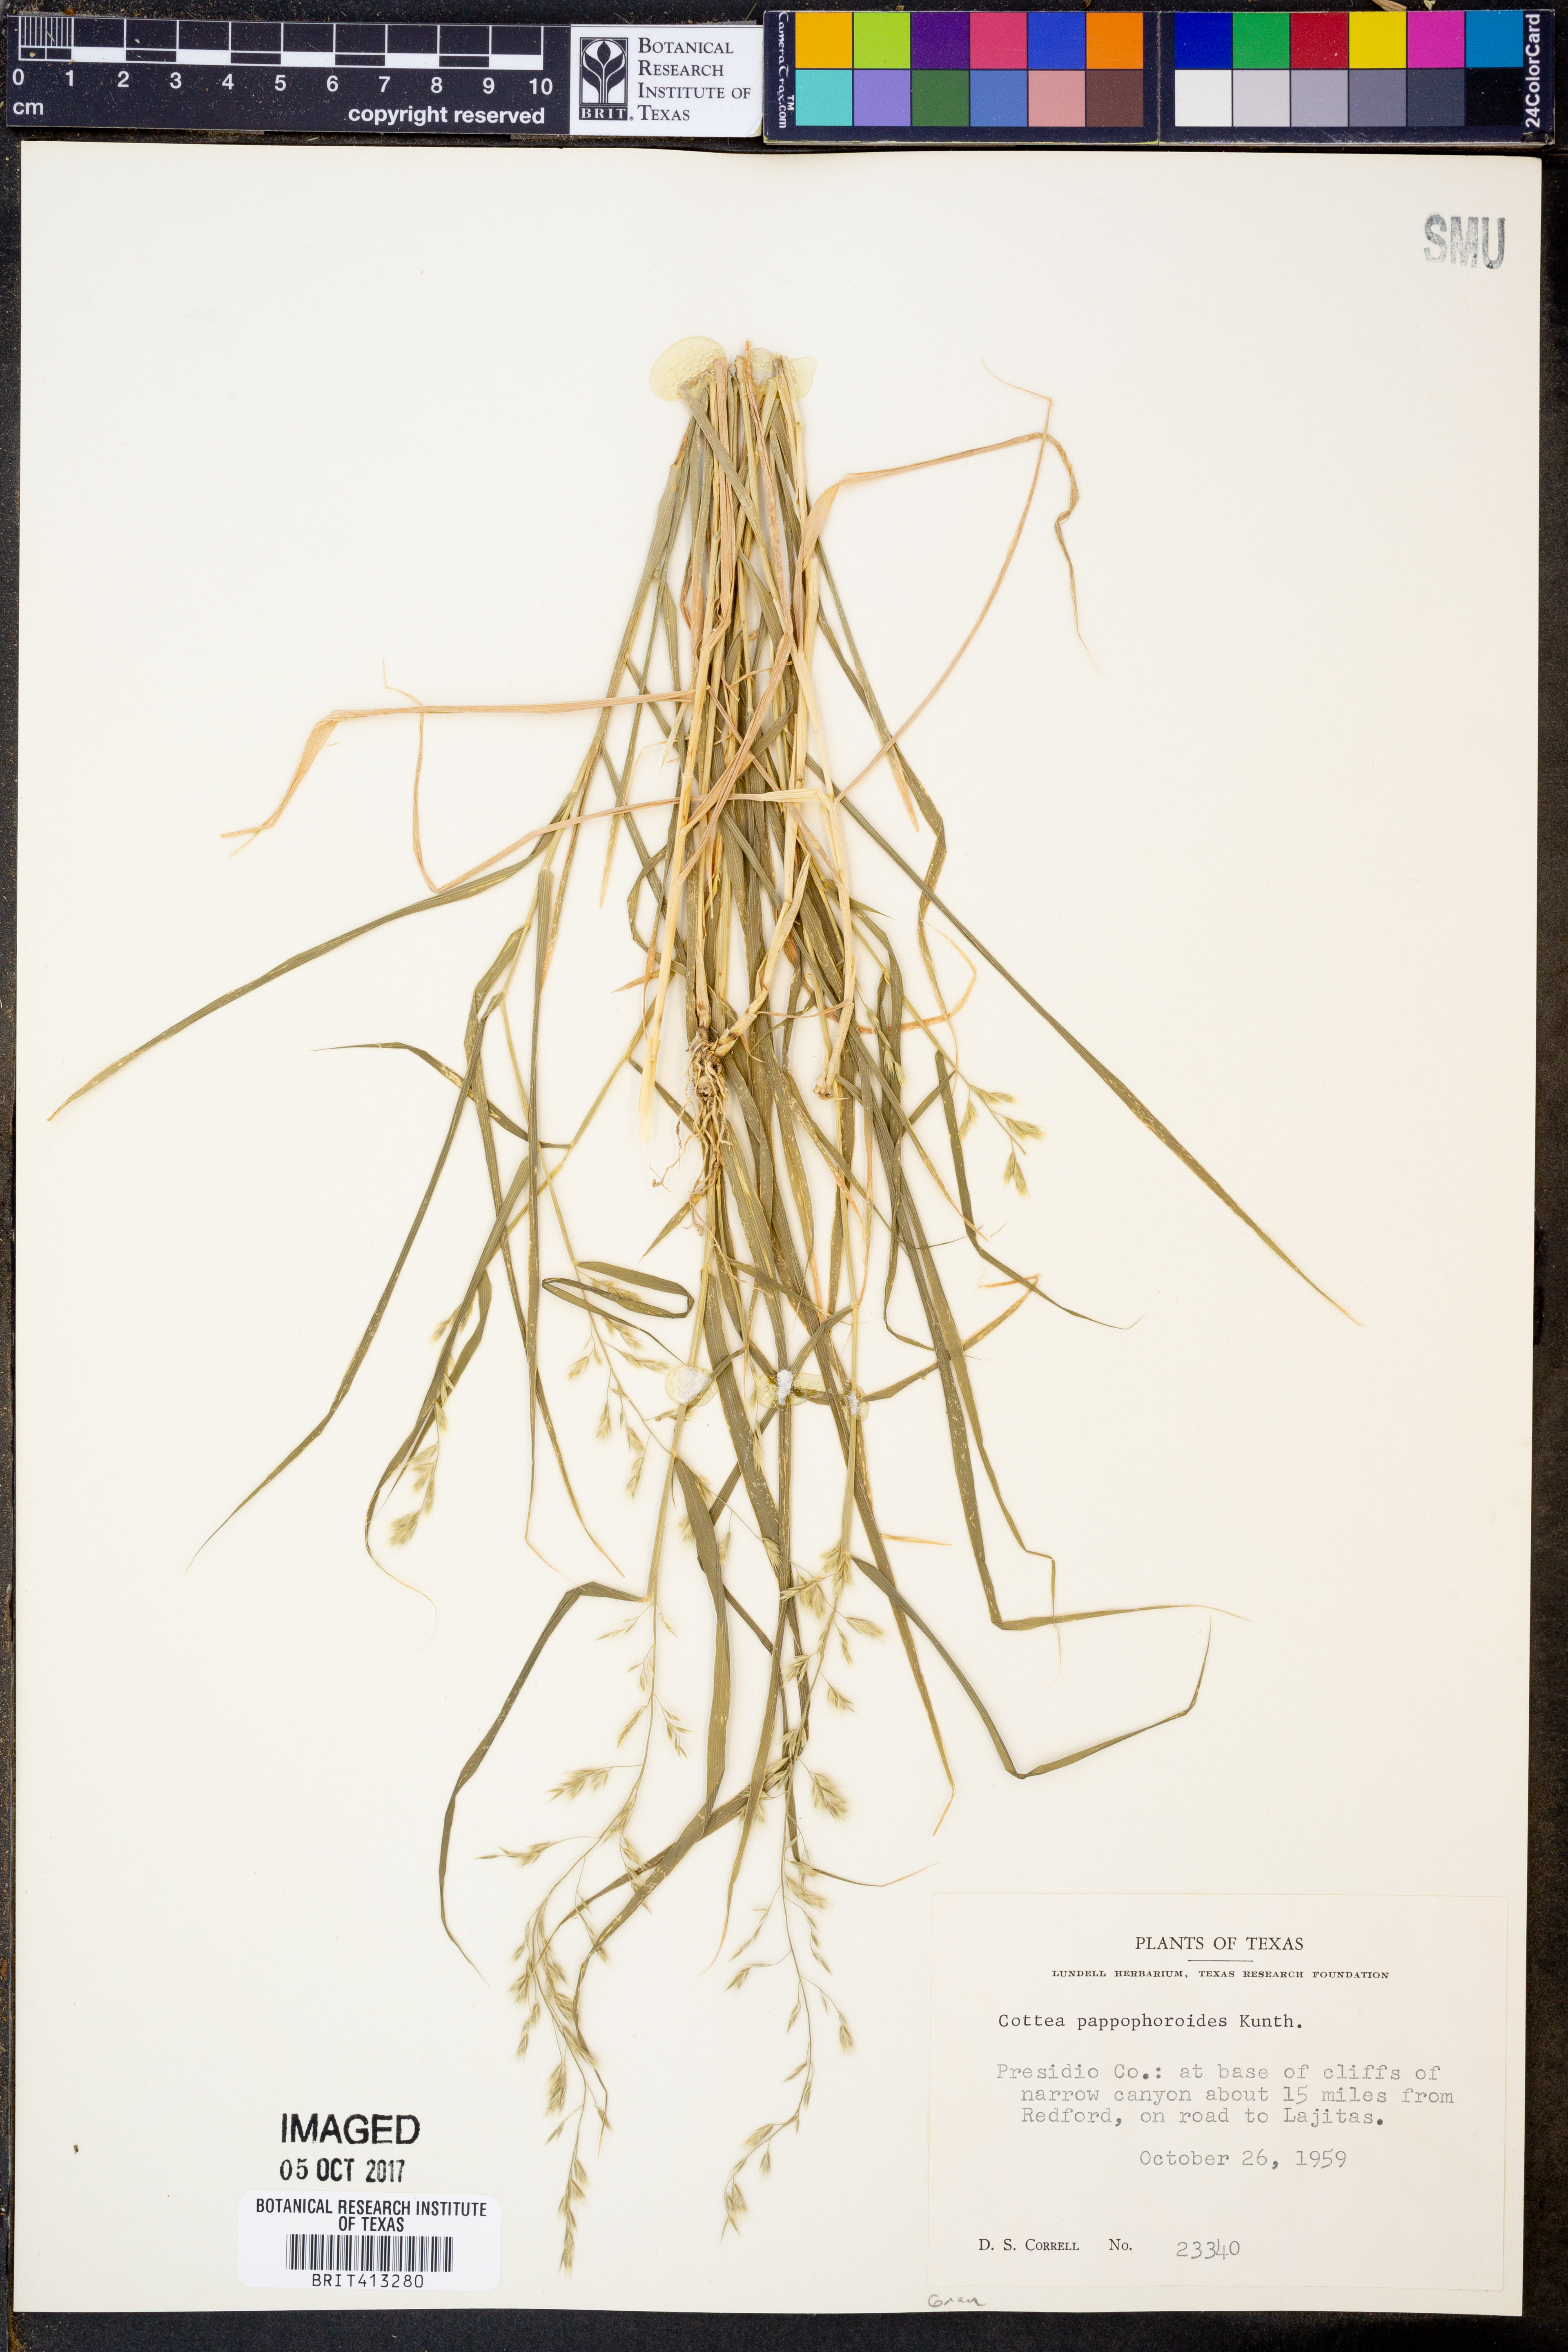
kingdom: Plantae
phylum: Tracheophyta
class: Liliopsida
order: Poales
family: Poaceae
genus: Cottea
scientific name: Cottea pappophoroides
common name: Cotta grass
